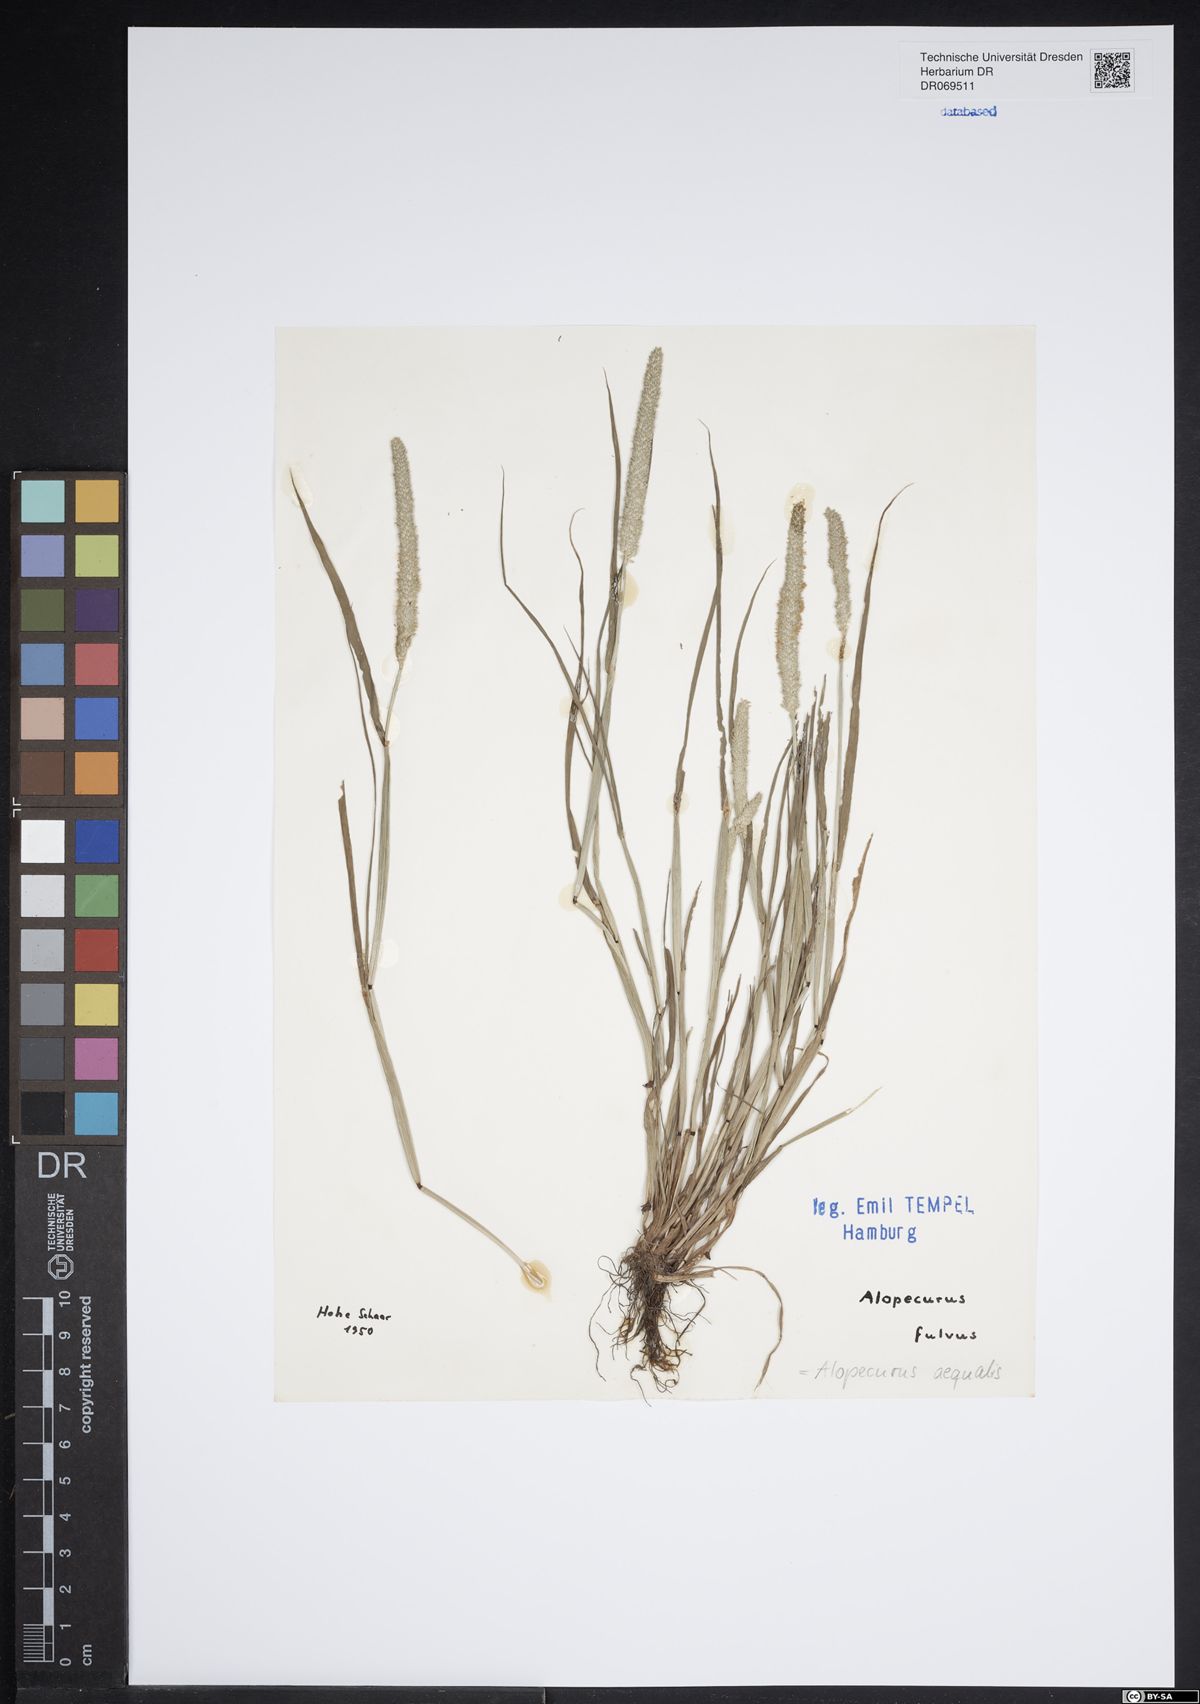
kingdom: Plantae
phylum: Tracheophyta
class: Liliopsida
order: Poales
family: Poaceae
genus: Alopecurus
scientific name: Alopecurus aequalis
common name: Orange foxtail
